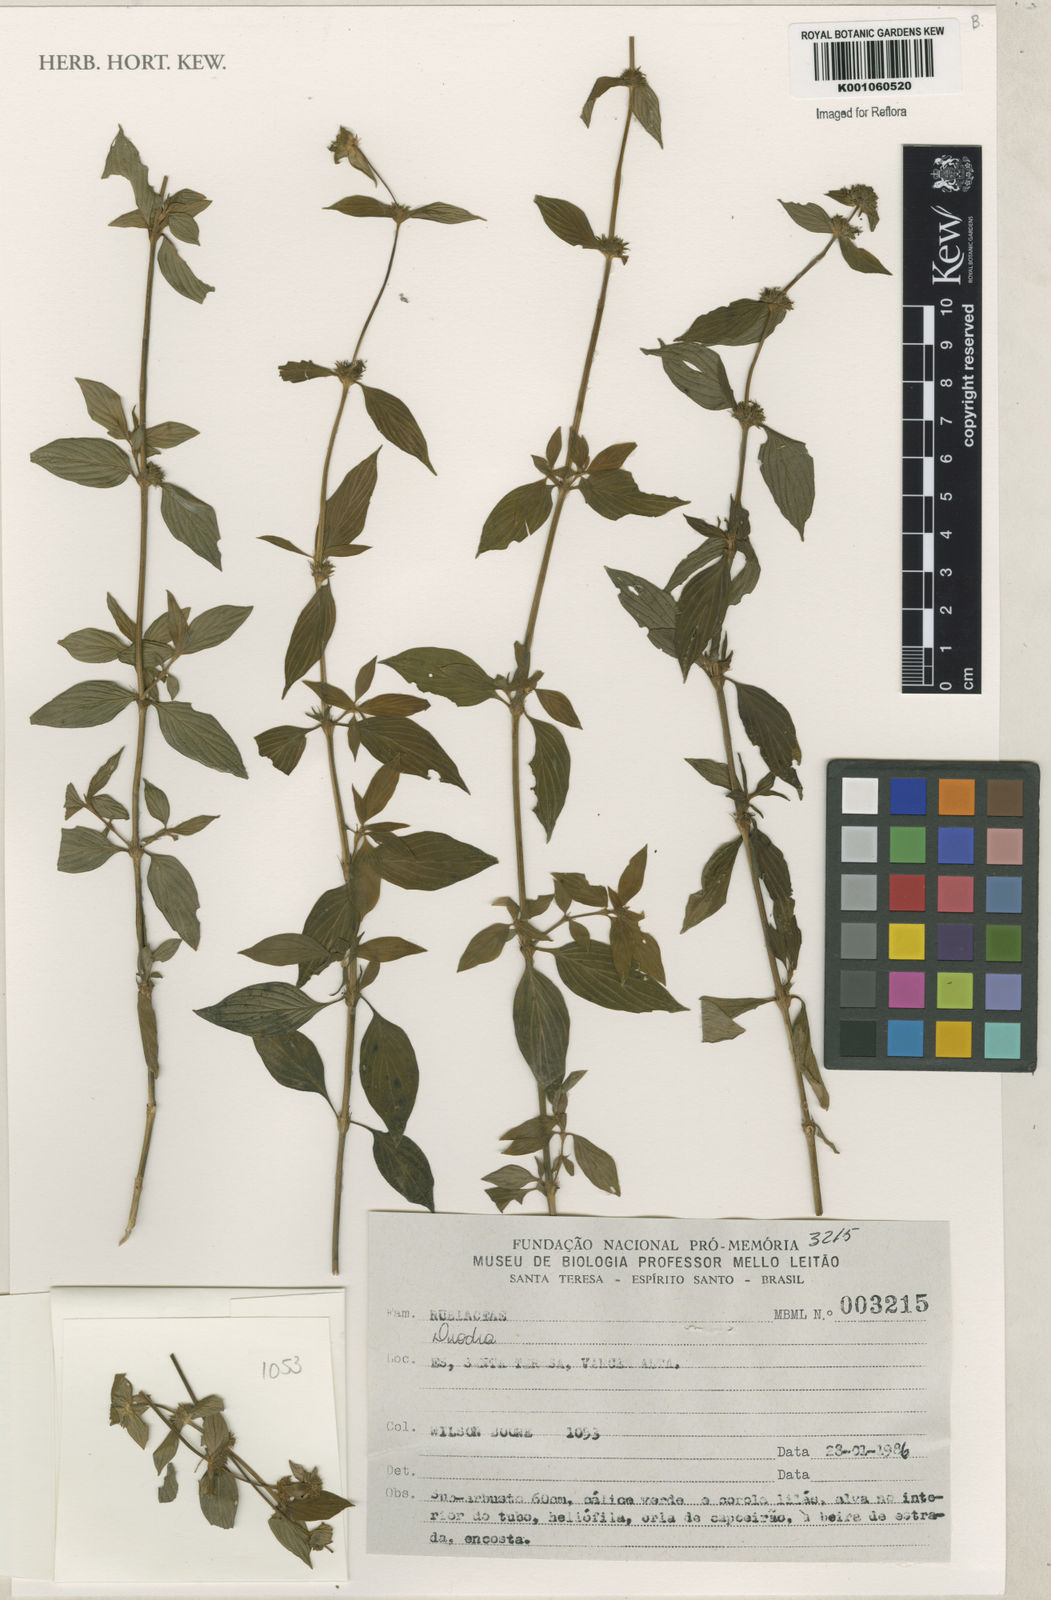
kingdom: Plantae
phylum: Tracheophyta
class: Magnoliopsida
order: Gentianales
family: Rubiaceae
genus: Diodia
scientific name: Diodia
